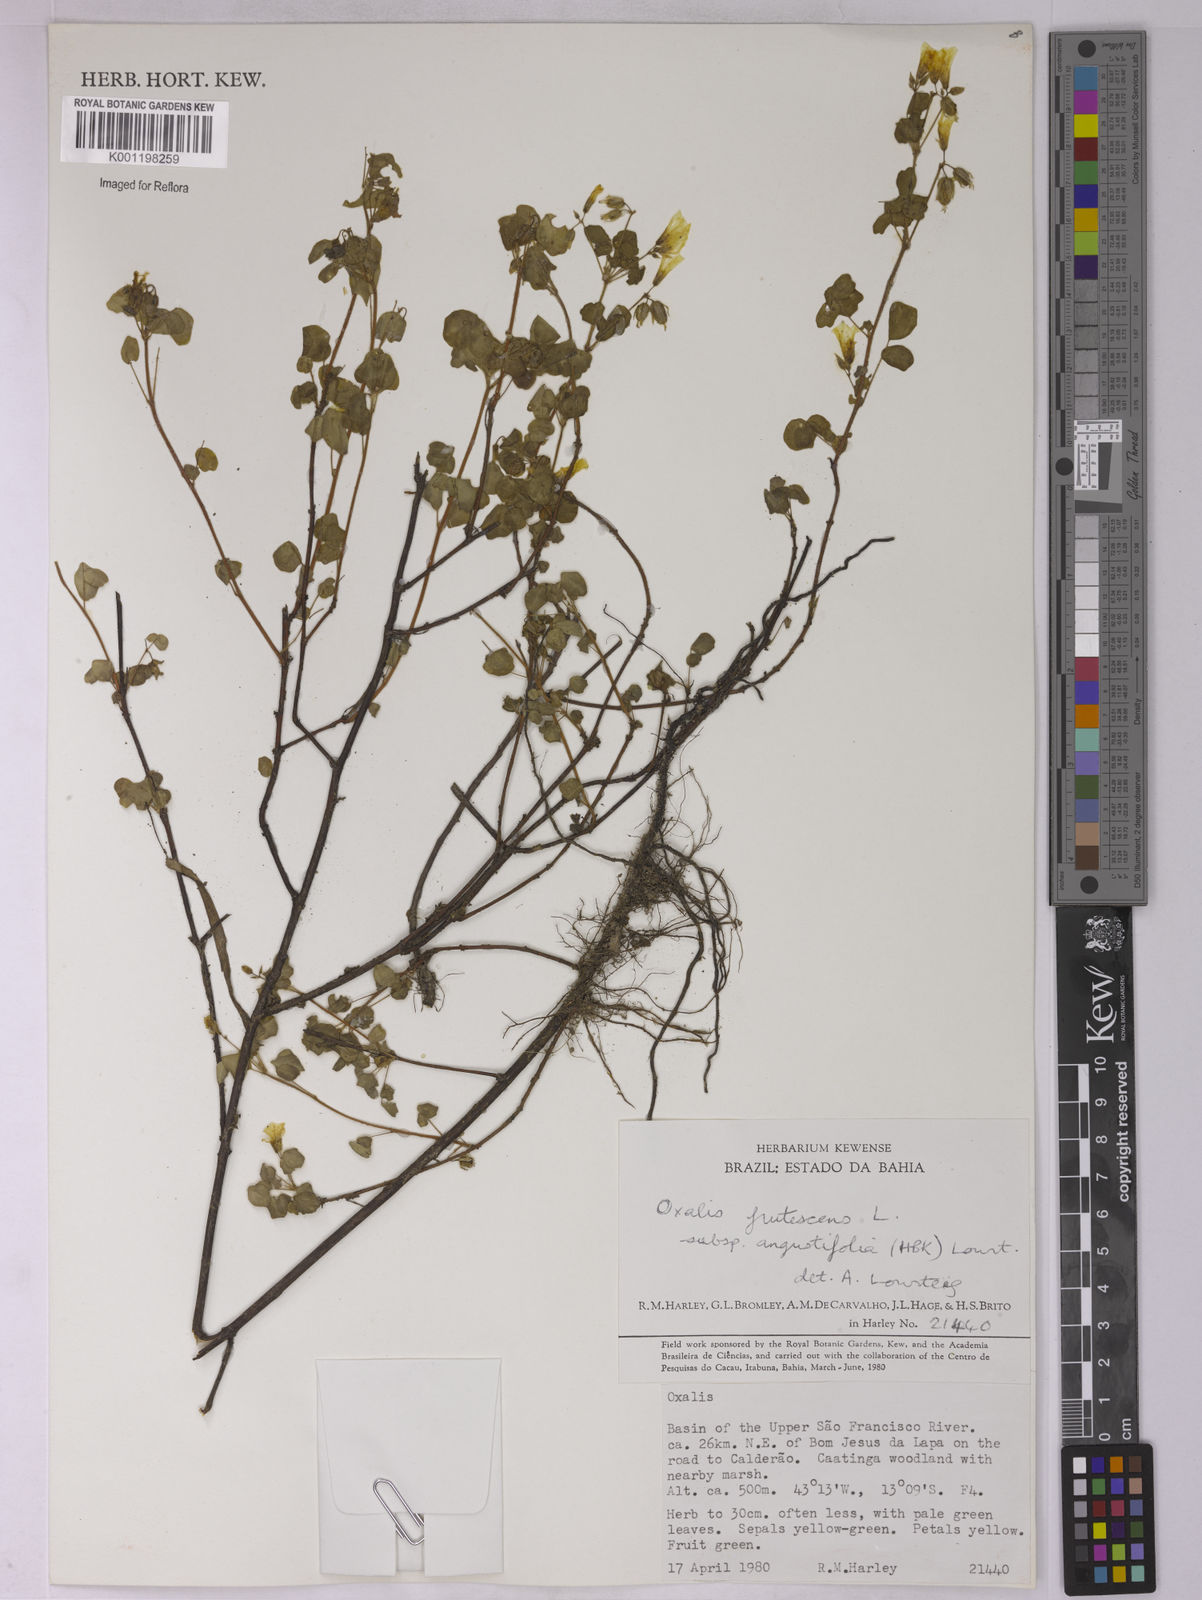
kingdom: Plantae
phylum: Tracheophyta
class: Magnoliopsida
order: Oxalidales
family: Oxalidaceae
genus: Oxalis
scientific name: Oxalis frutescens
